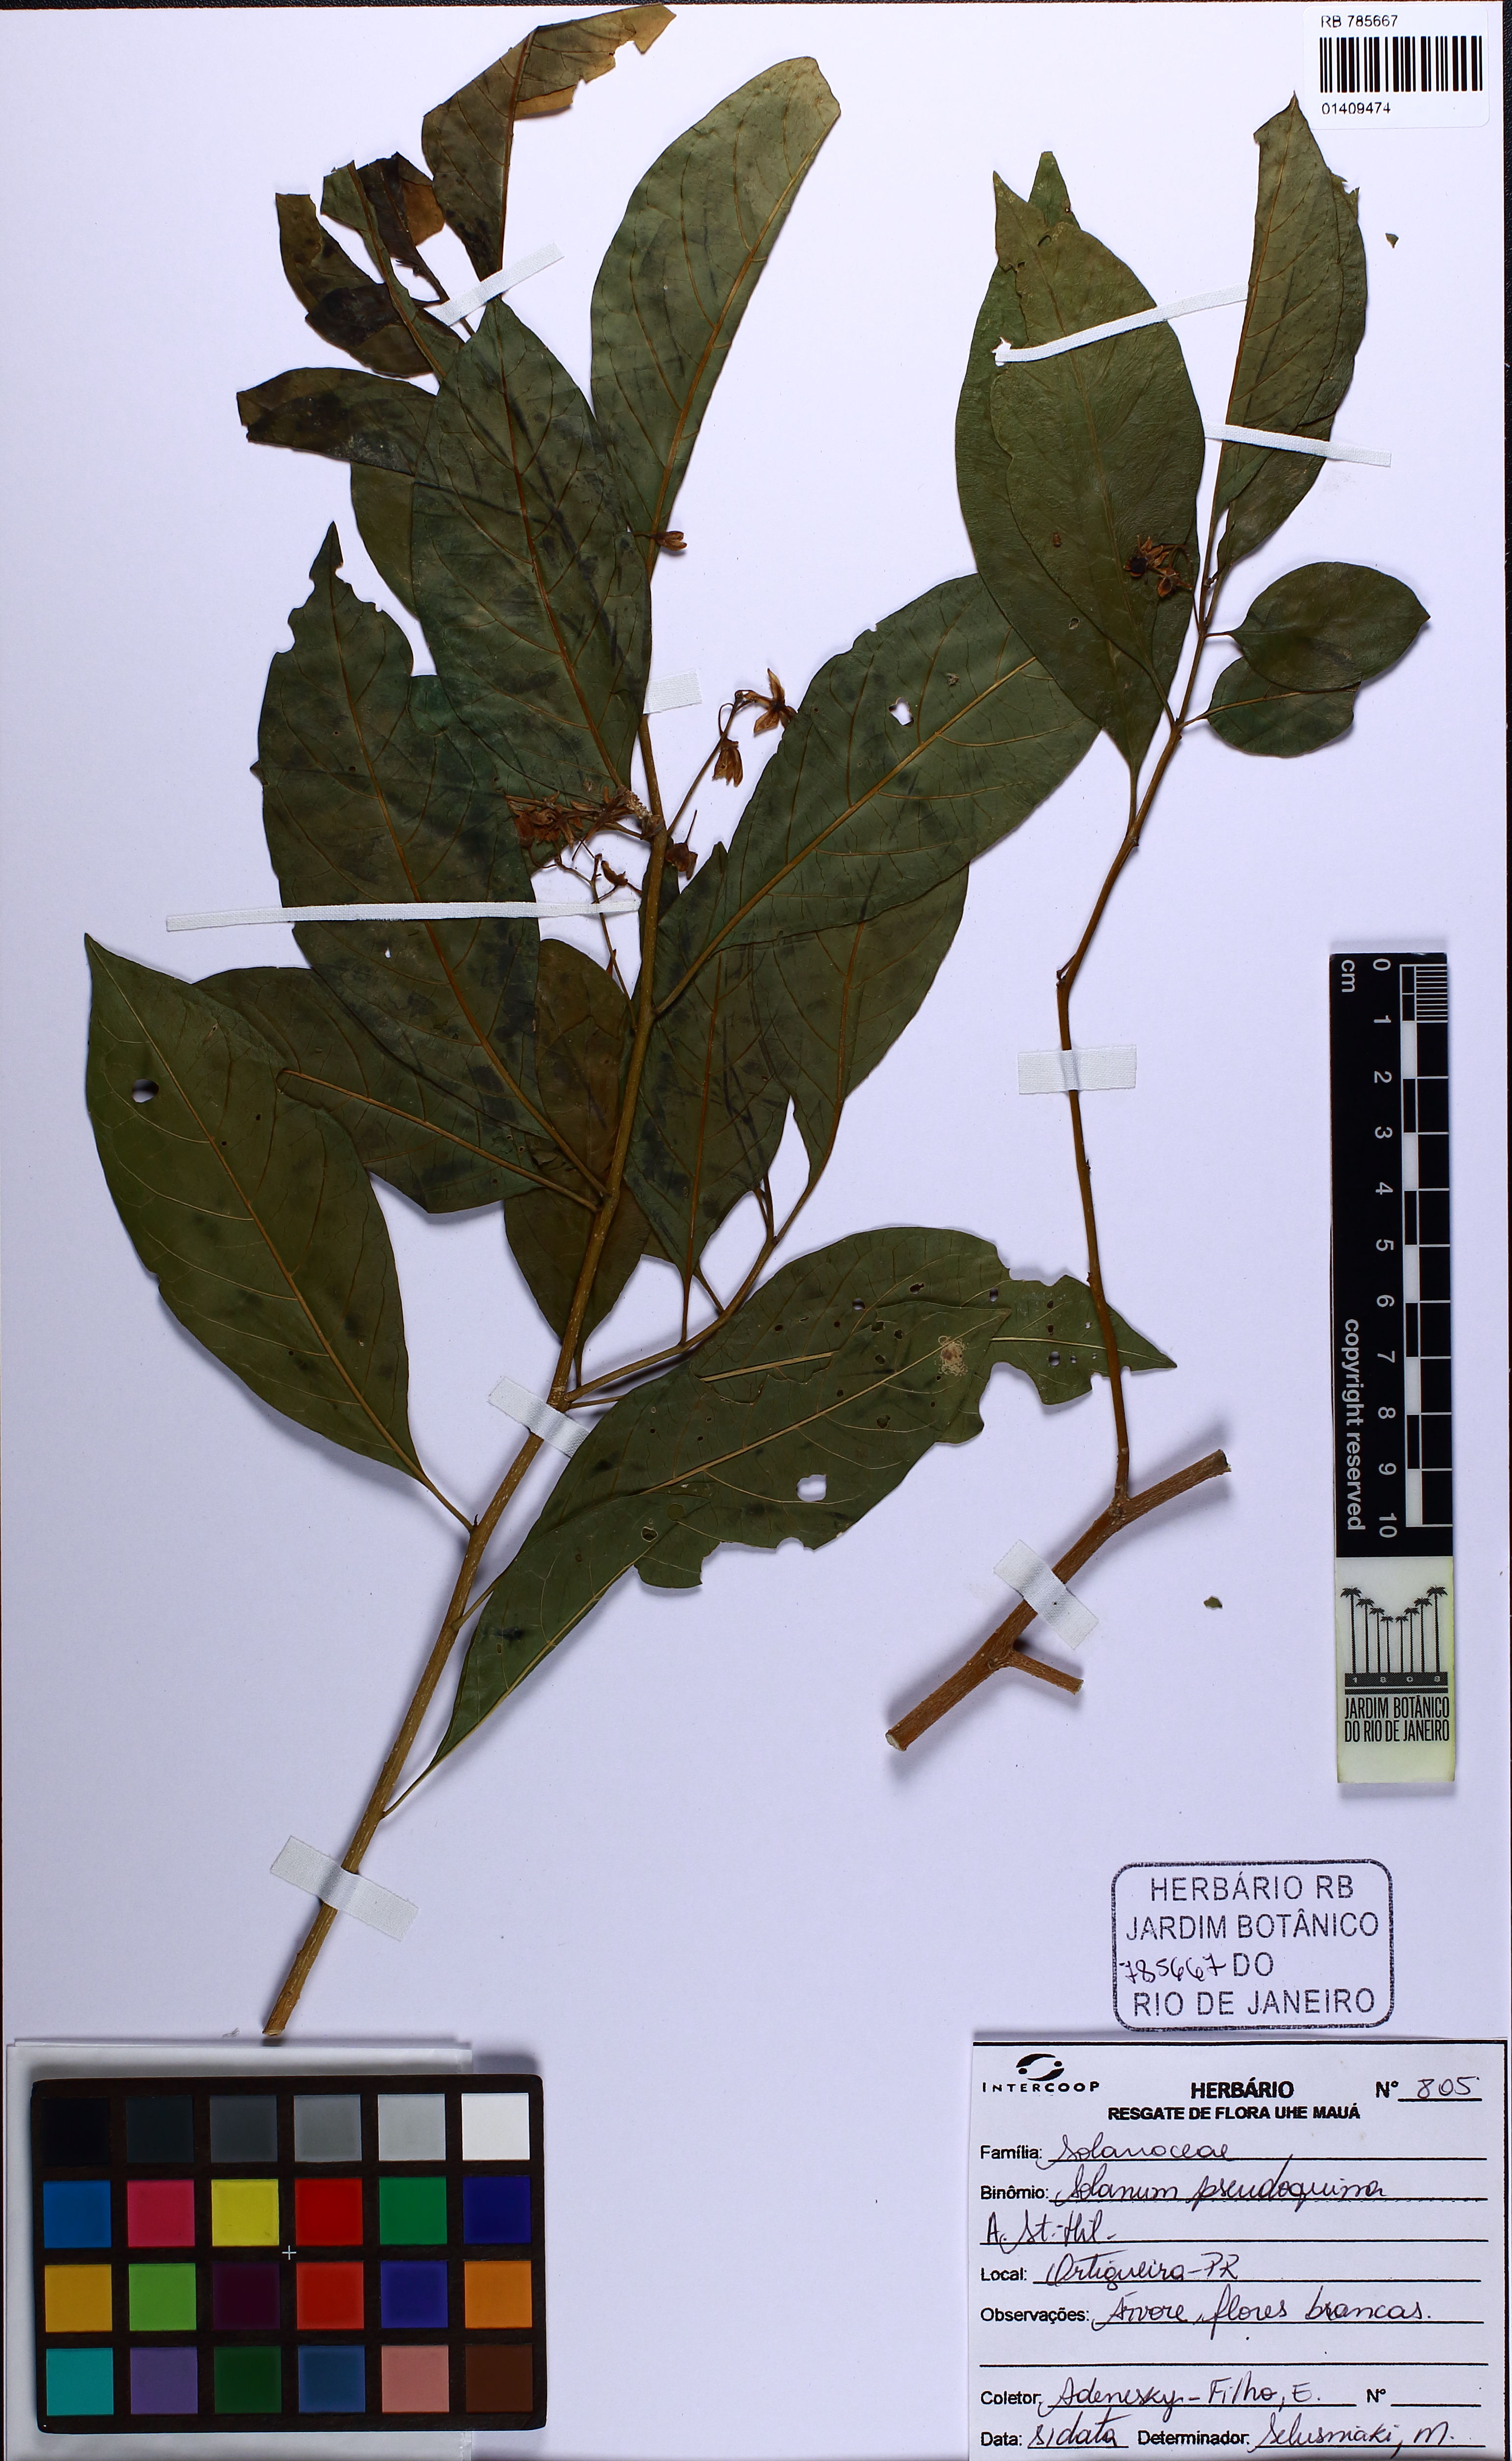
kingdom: Plantae
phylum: Tracheophyta
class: Magnoliopsida
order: Solanales
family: Solanaceae
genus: Solanum
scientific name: Solanum pseudoquina
